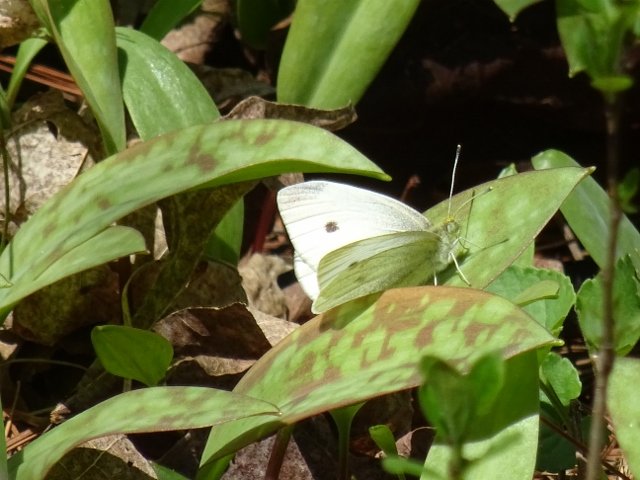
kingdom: Animalia
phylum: Arthropoda
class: Insecta
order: Lepidoptera
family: Pieridae
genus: Pieris
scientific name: Pieris rapae
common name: Cabbage White
